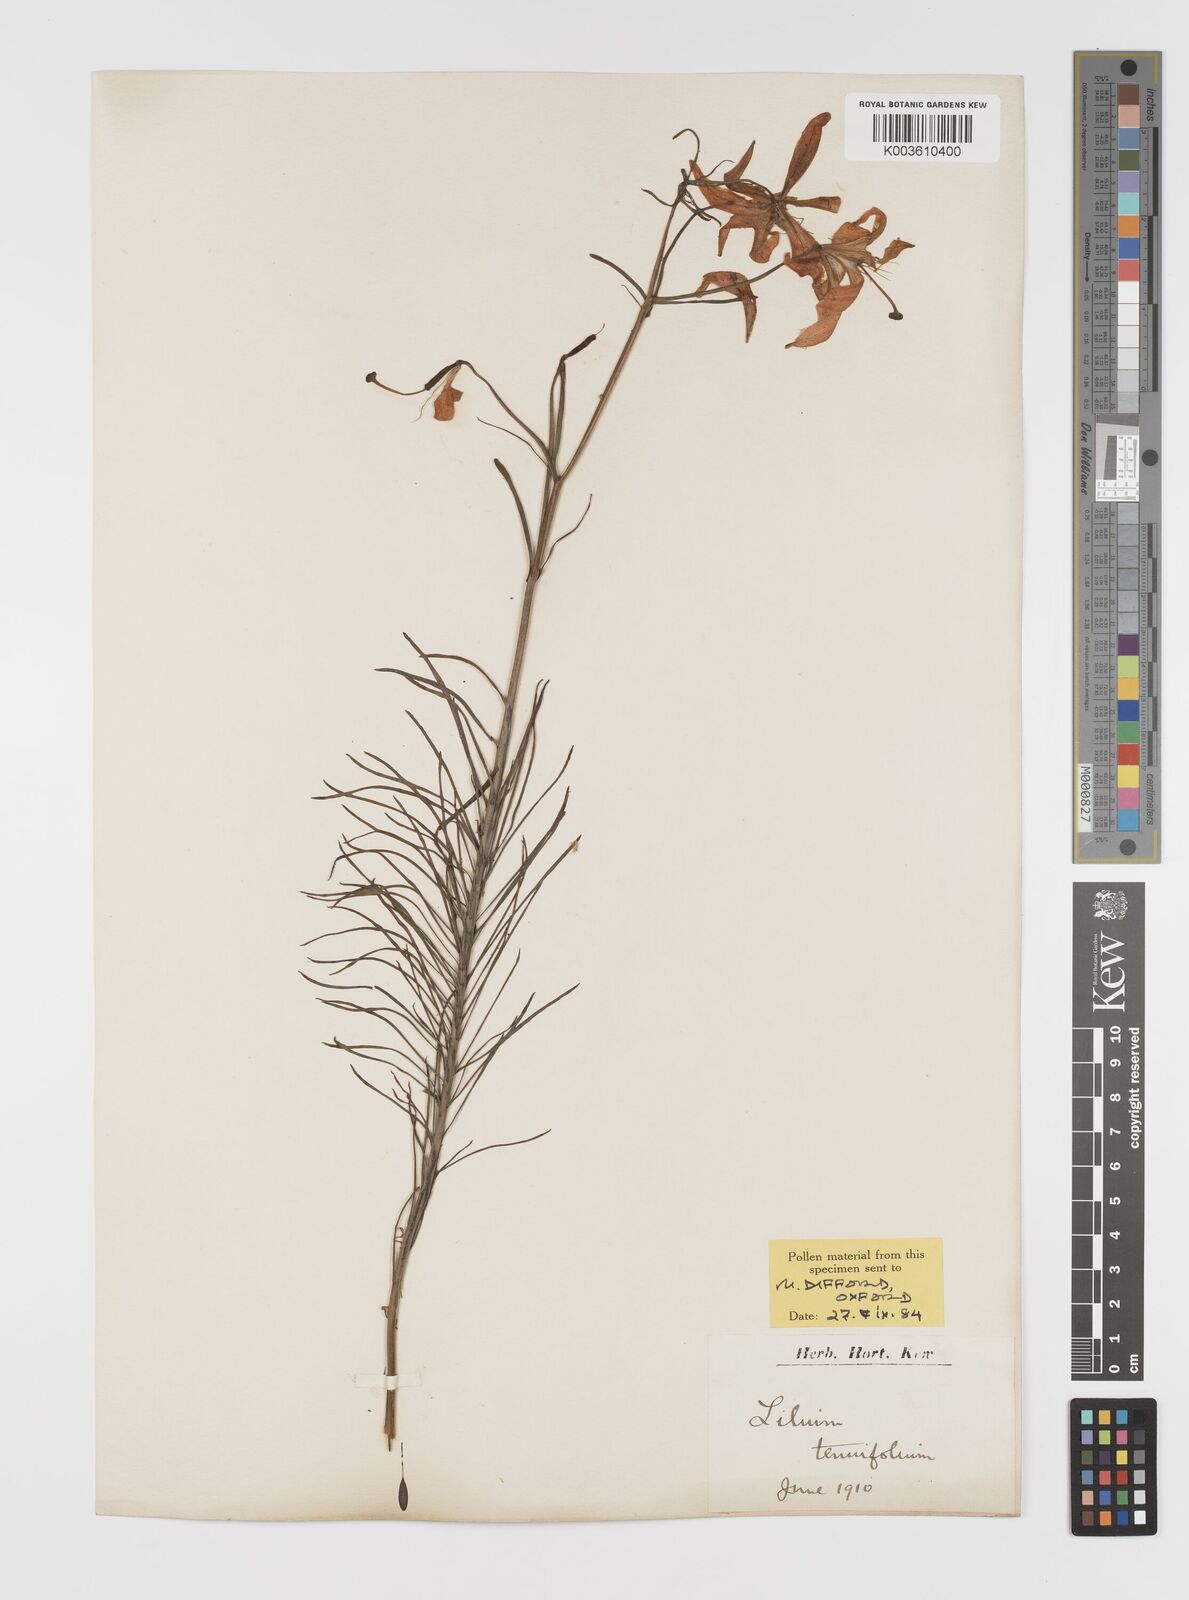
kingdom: Plantae
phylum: Tracheophyta
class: Liliopsida
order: Liliales
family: Liliaceae
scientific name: Liliaceae
